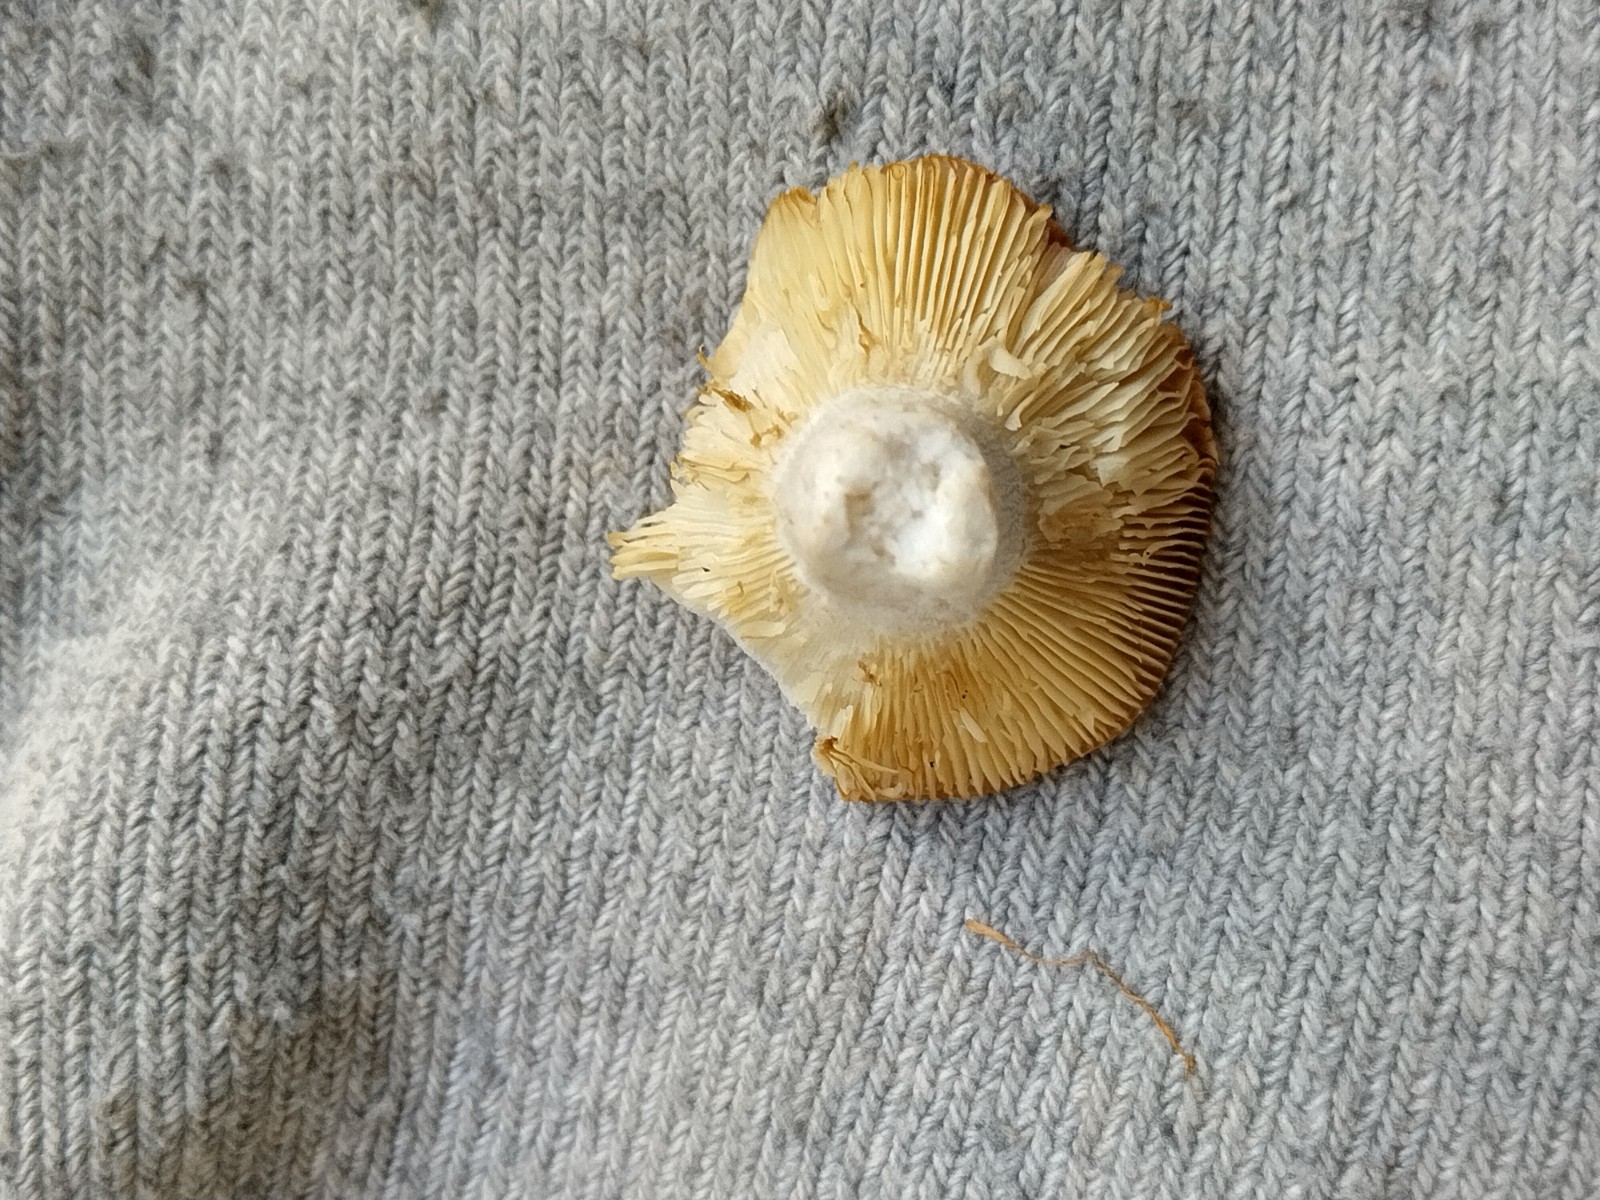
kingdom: Fungi
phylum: Basidiomycota
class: Agaricomycetes
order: Russulales
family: Russulaceae
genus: Russula
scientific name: Russula depallens
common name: falmende skørhat
